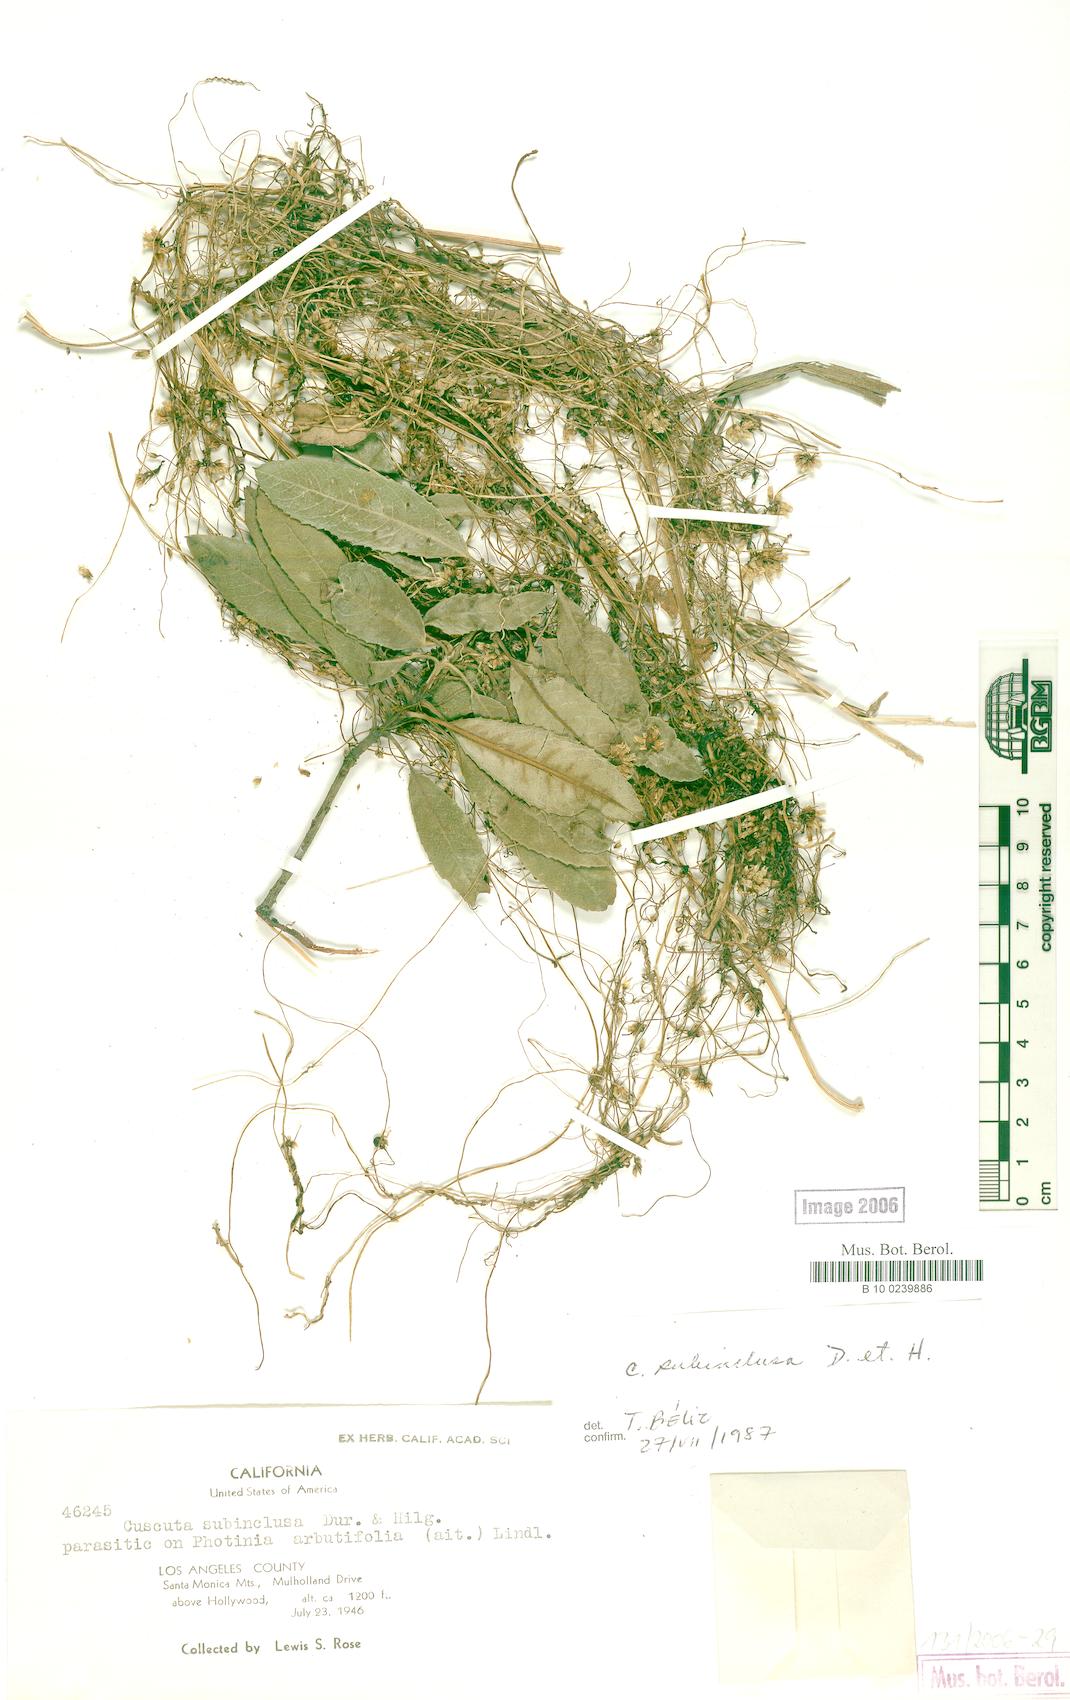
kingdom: Plantae
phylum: Tracheophyta
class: Magnoliopsida
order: Solanales
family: Convolvulaceae
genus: Cuscuta
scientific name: Cuscuta subinclusa
